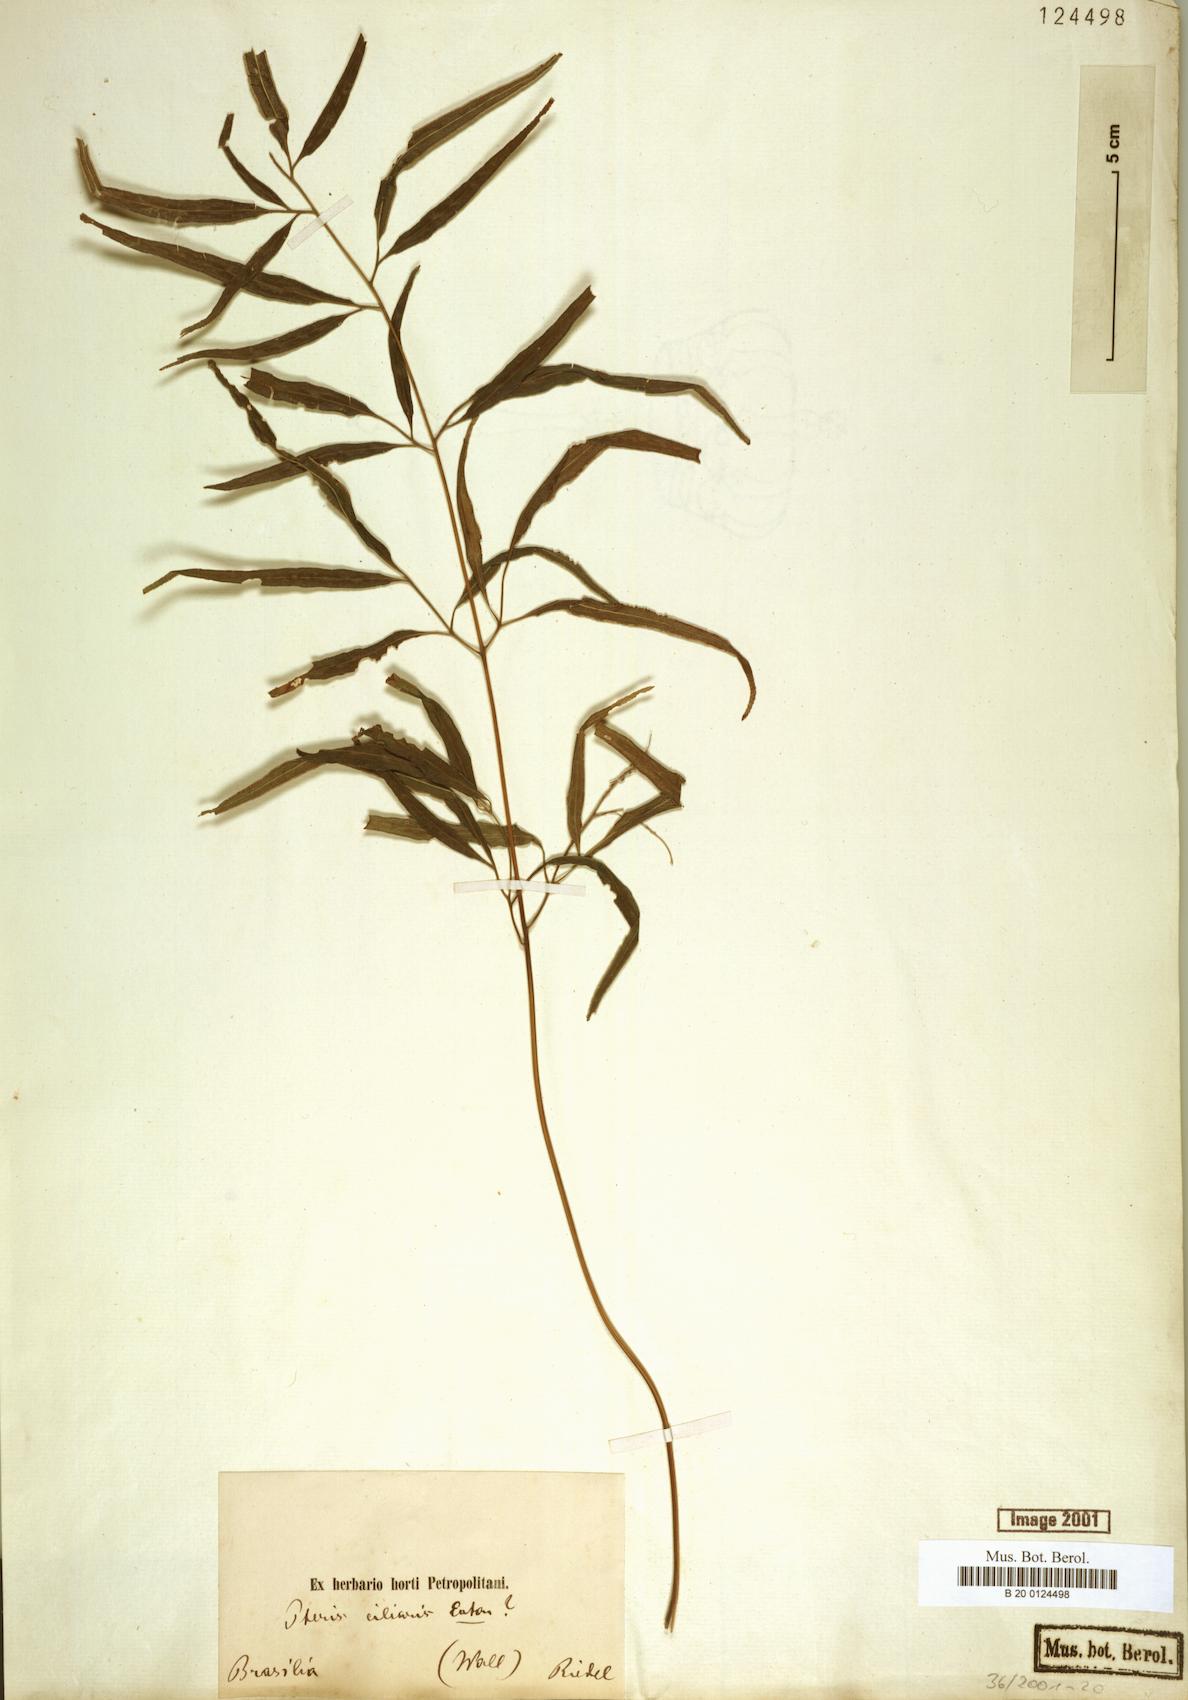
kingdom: Plantae
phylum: Tracheophyta
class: Polypodiopsida
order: Polypodiales
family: Pteridaceae
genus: Pteris
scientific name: Pteris ciliaris
